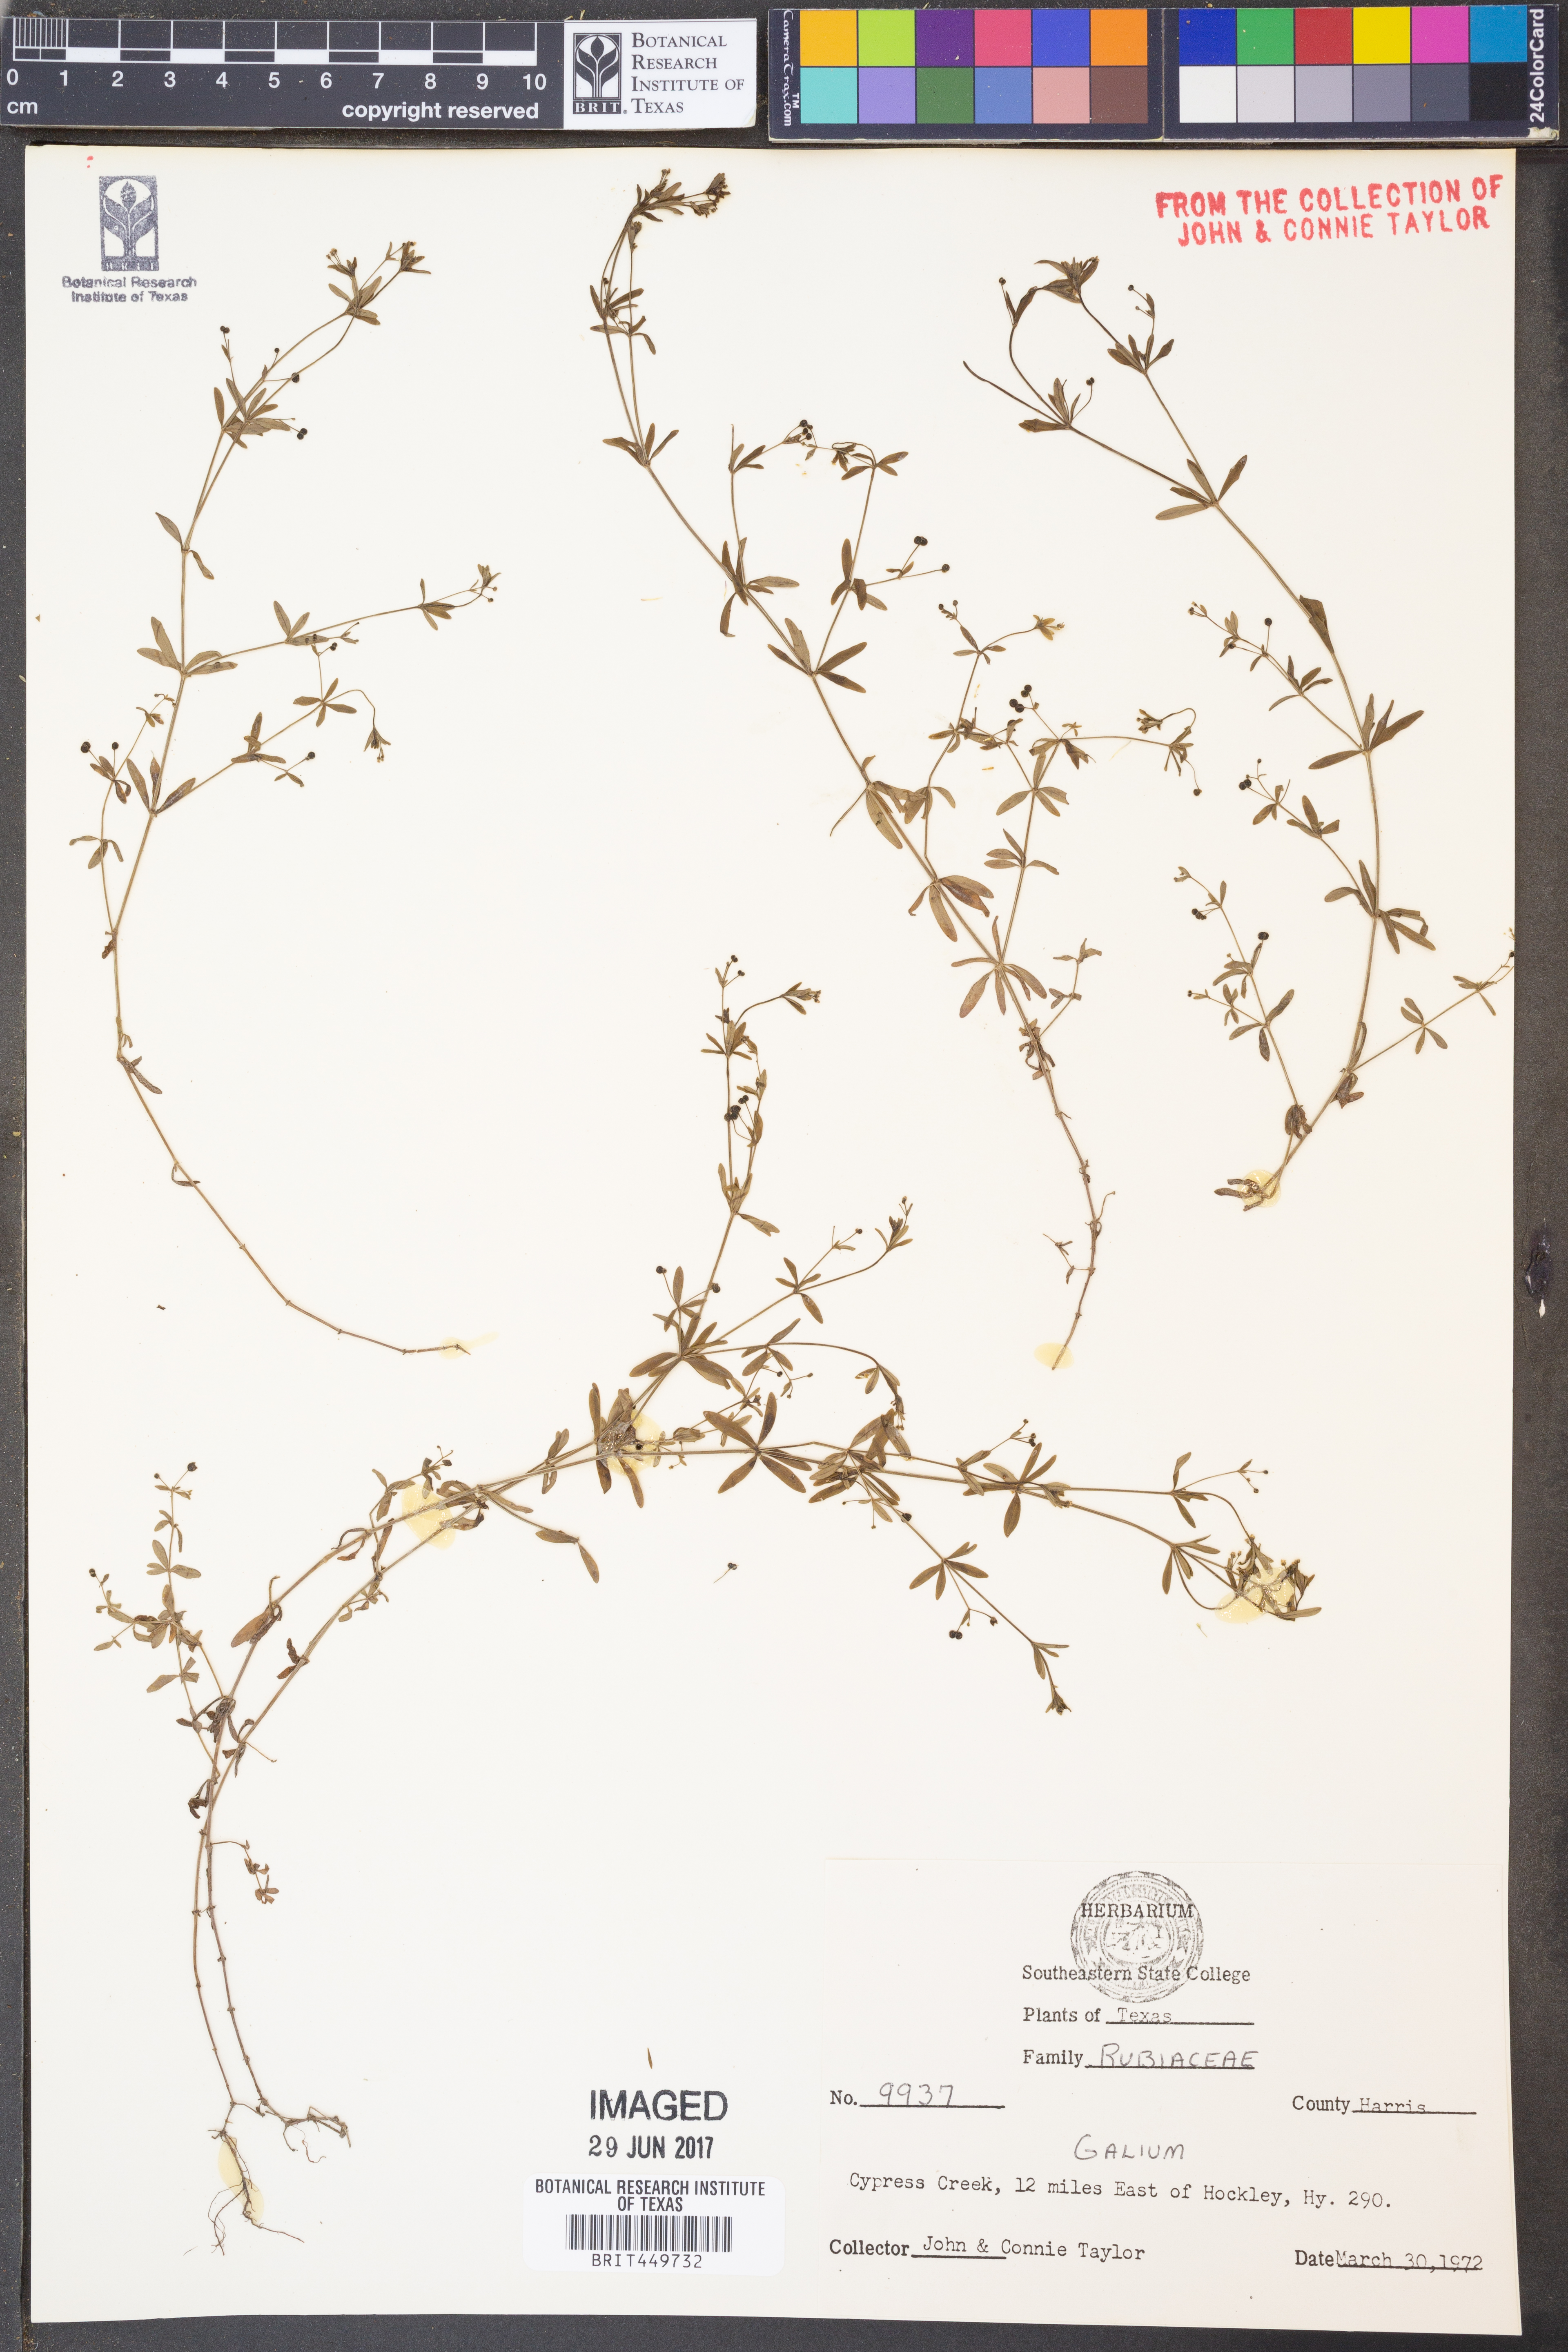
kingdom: Plantae
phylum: Tracheophyta
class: Magnoliopsida
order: Gentianales
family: Rubiaceae
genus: Galium
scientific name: Galium
